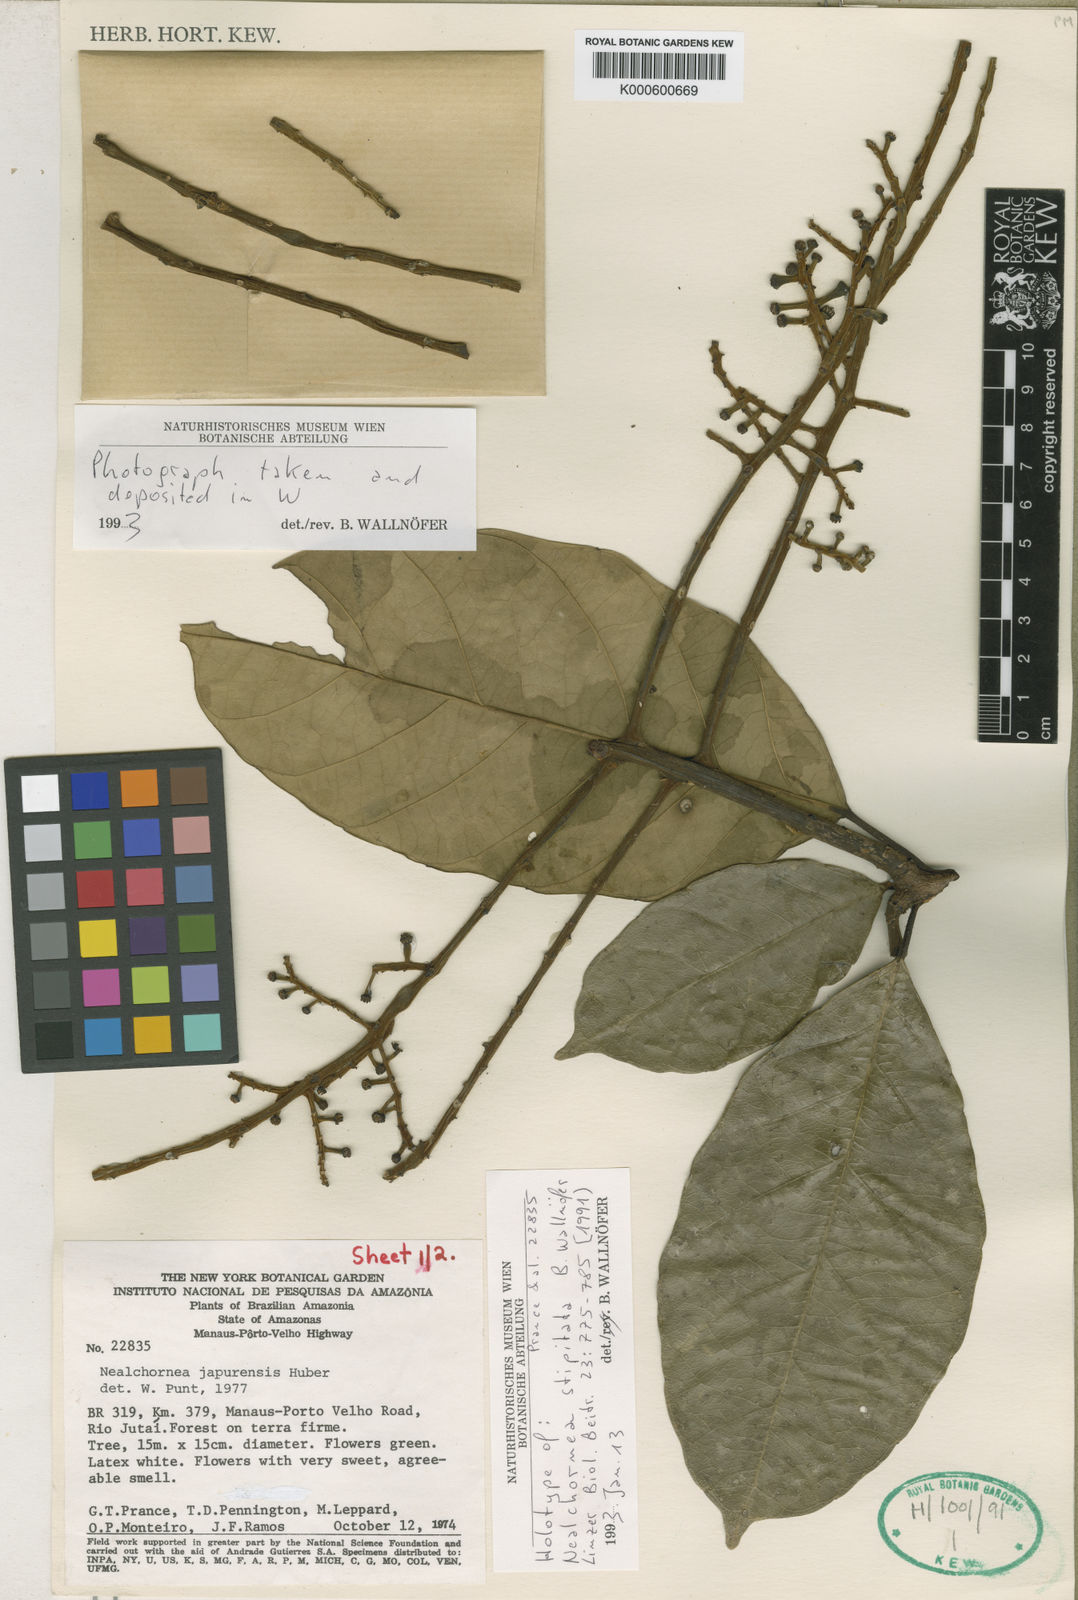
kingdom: Plantae
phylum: Tracheophyta
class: Magnoliopsida
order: Malpighiales
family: Euphorbiaceae
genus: Nealchornea
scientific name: Nealchornea stipitata
